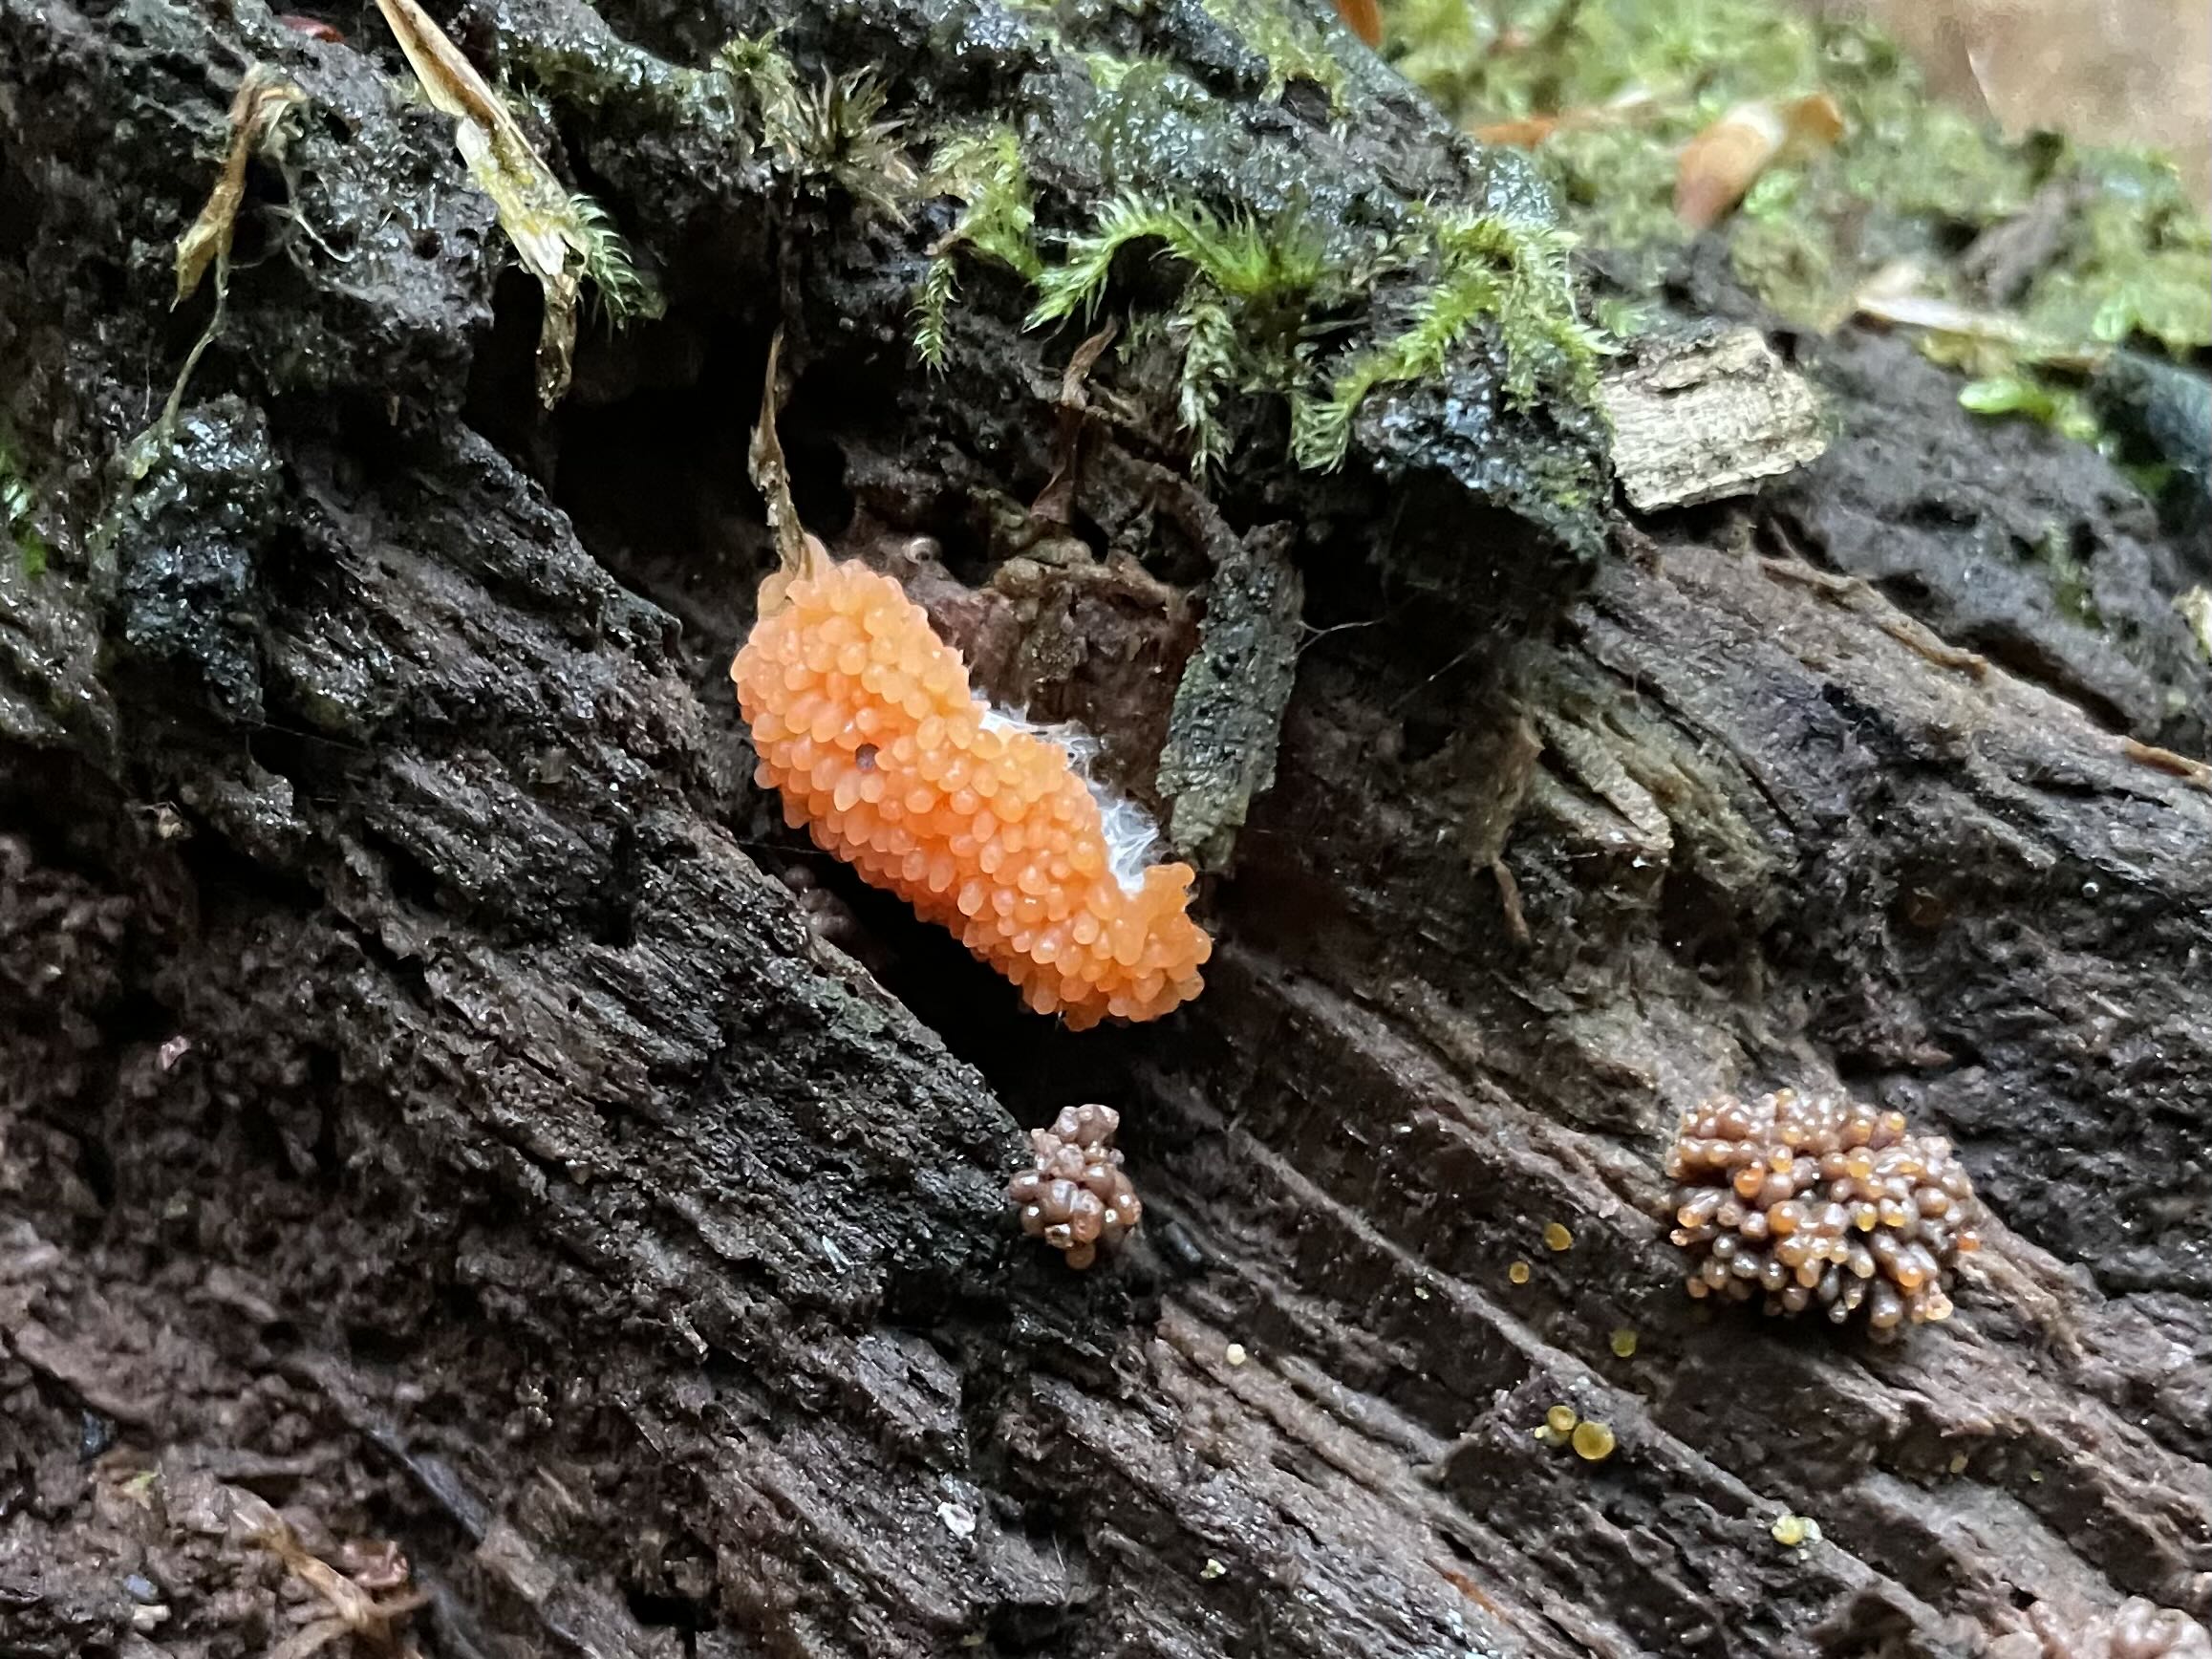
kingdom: Protozoa
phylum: Mycetozoa
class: Myxomycetes
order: Cribrariales
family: Tubiferaceae
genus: Tubifera
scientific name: Tubifera ferruginosa
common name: kanel-støvrør
